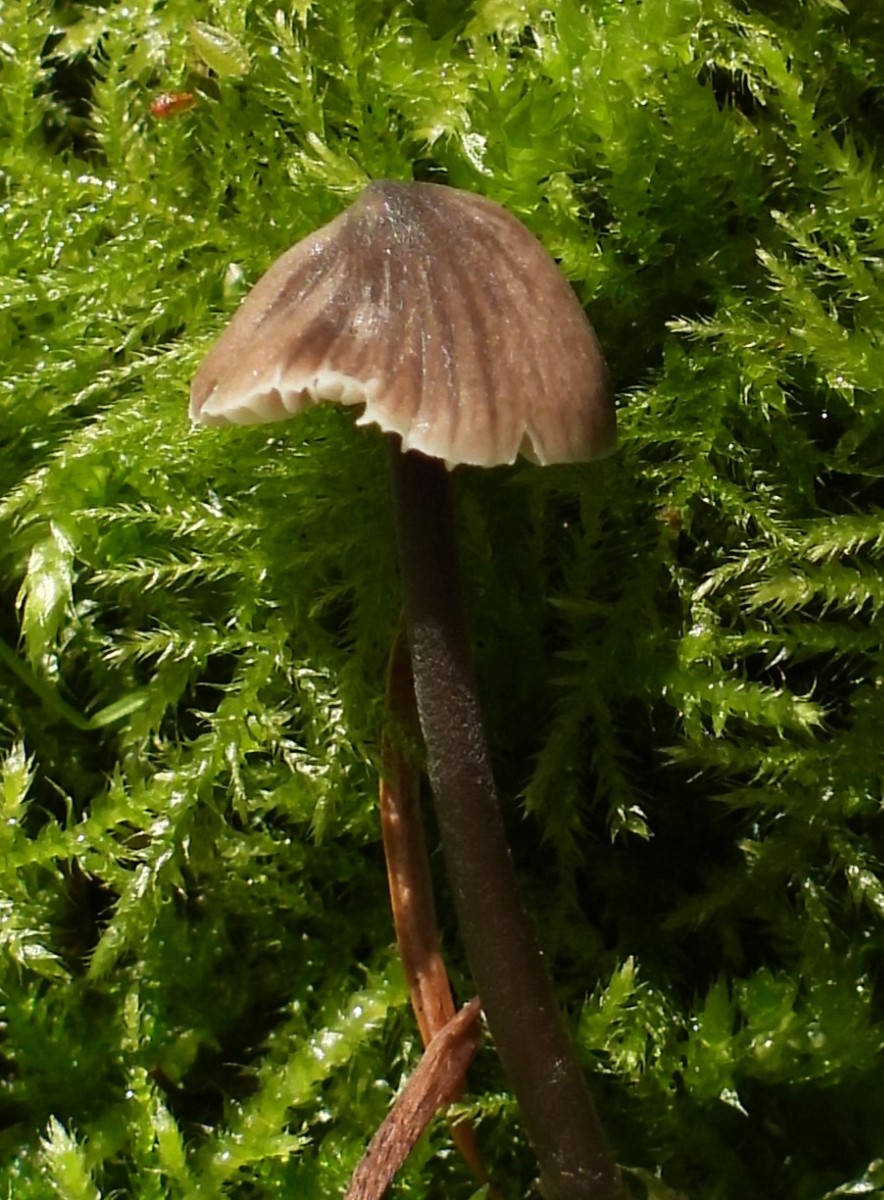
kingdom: Fungi
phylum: Basidiomycota
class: Agaricomycetes
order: Agaricales
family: Mycenaceae
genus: Mycena
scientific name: Mycena
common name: huesvamp
